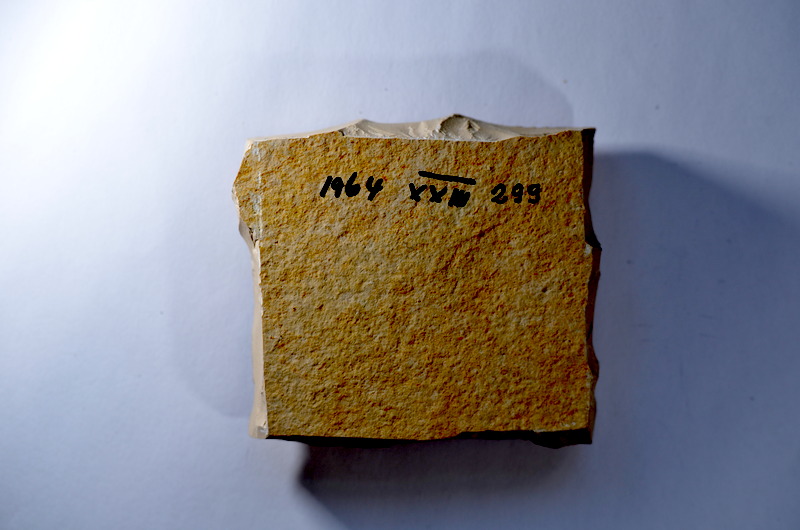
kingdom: Animalia
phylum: Chordata
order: Salmoniformes
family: Orthogonikleithridae
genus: Leptolepides
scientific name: Leptolepides
